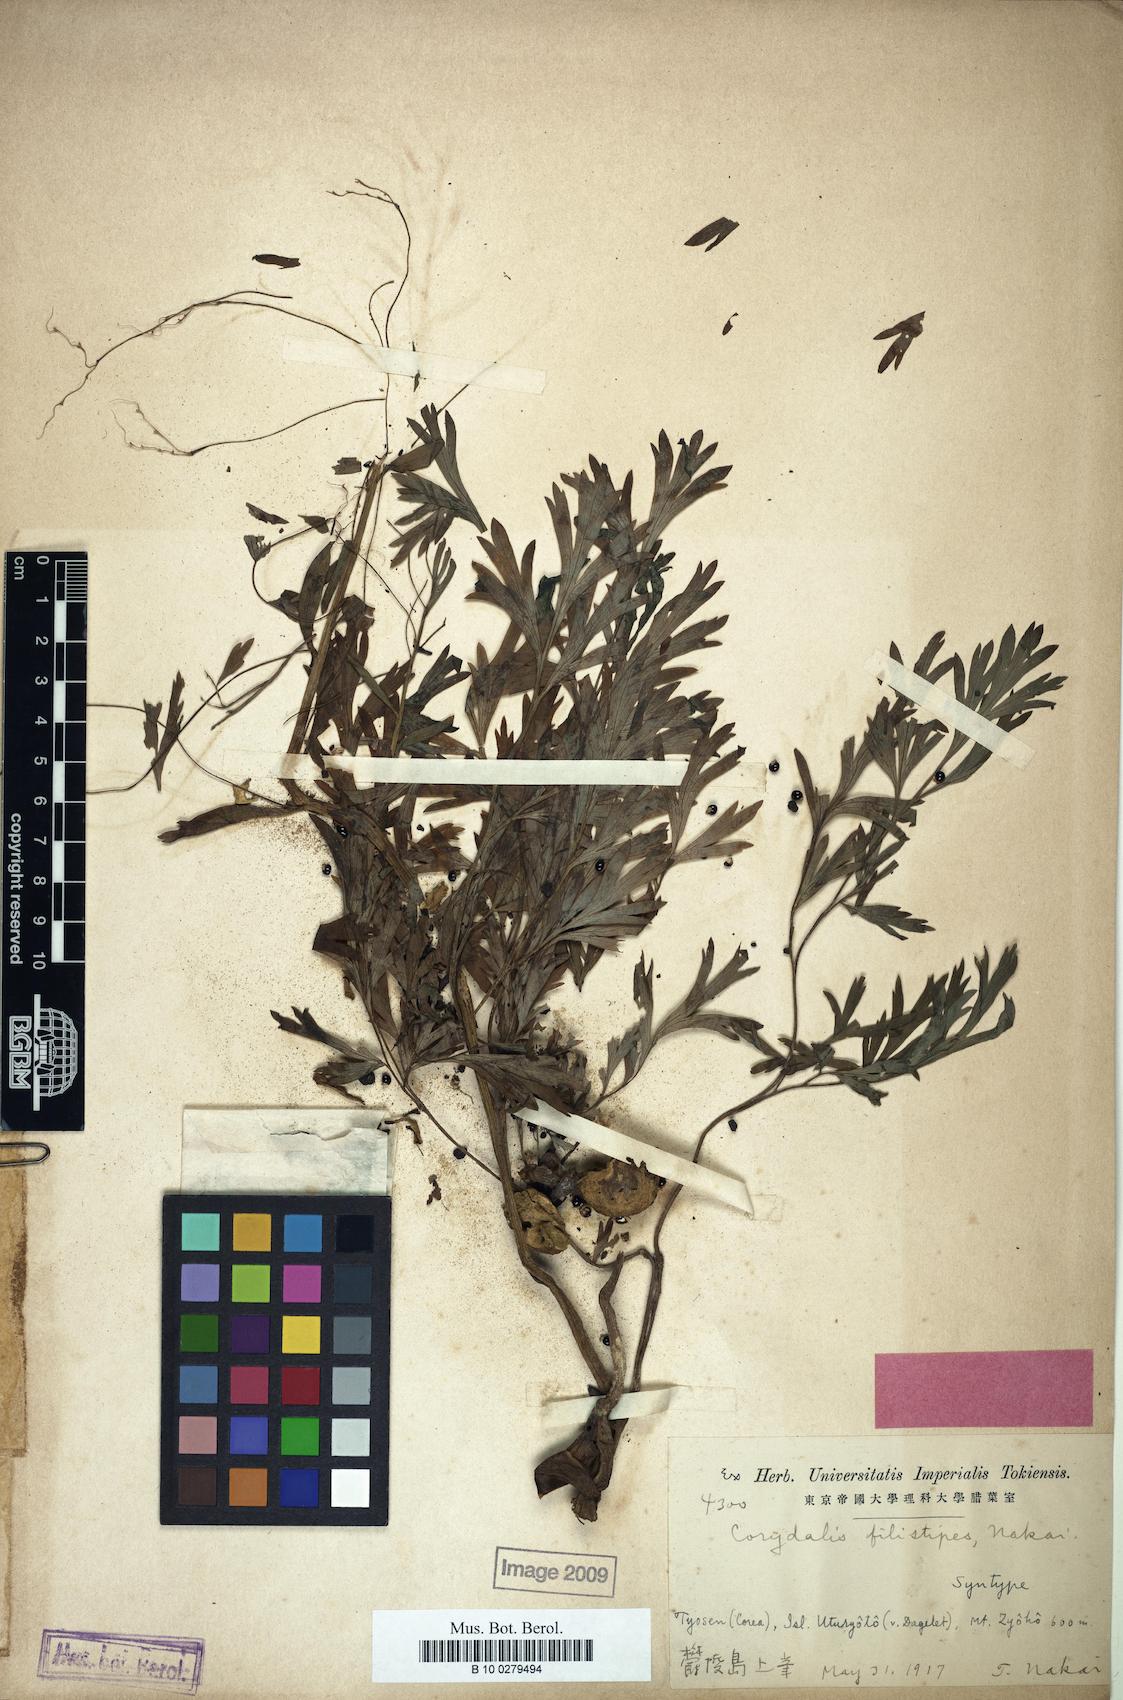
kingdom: Plantae
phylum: Tracheophyta
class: Magnoliopsida
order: Ranunculales
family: Papaveraceae
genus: Corydalis
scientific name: Corydalis filistipes
